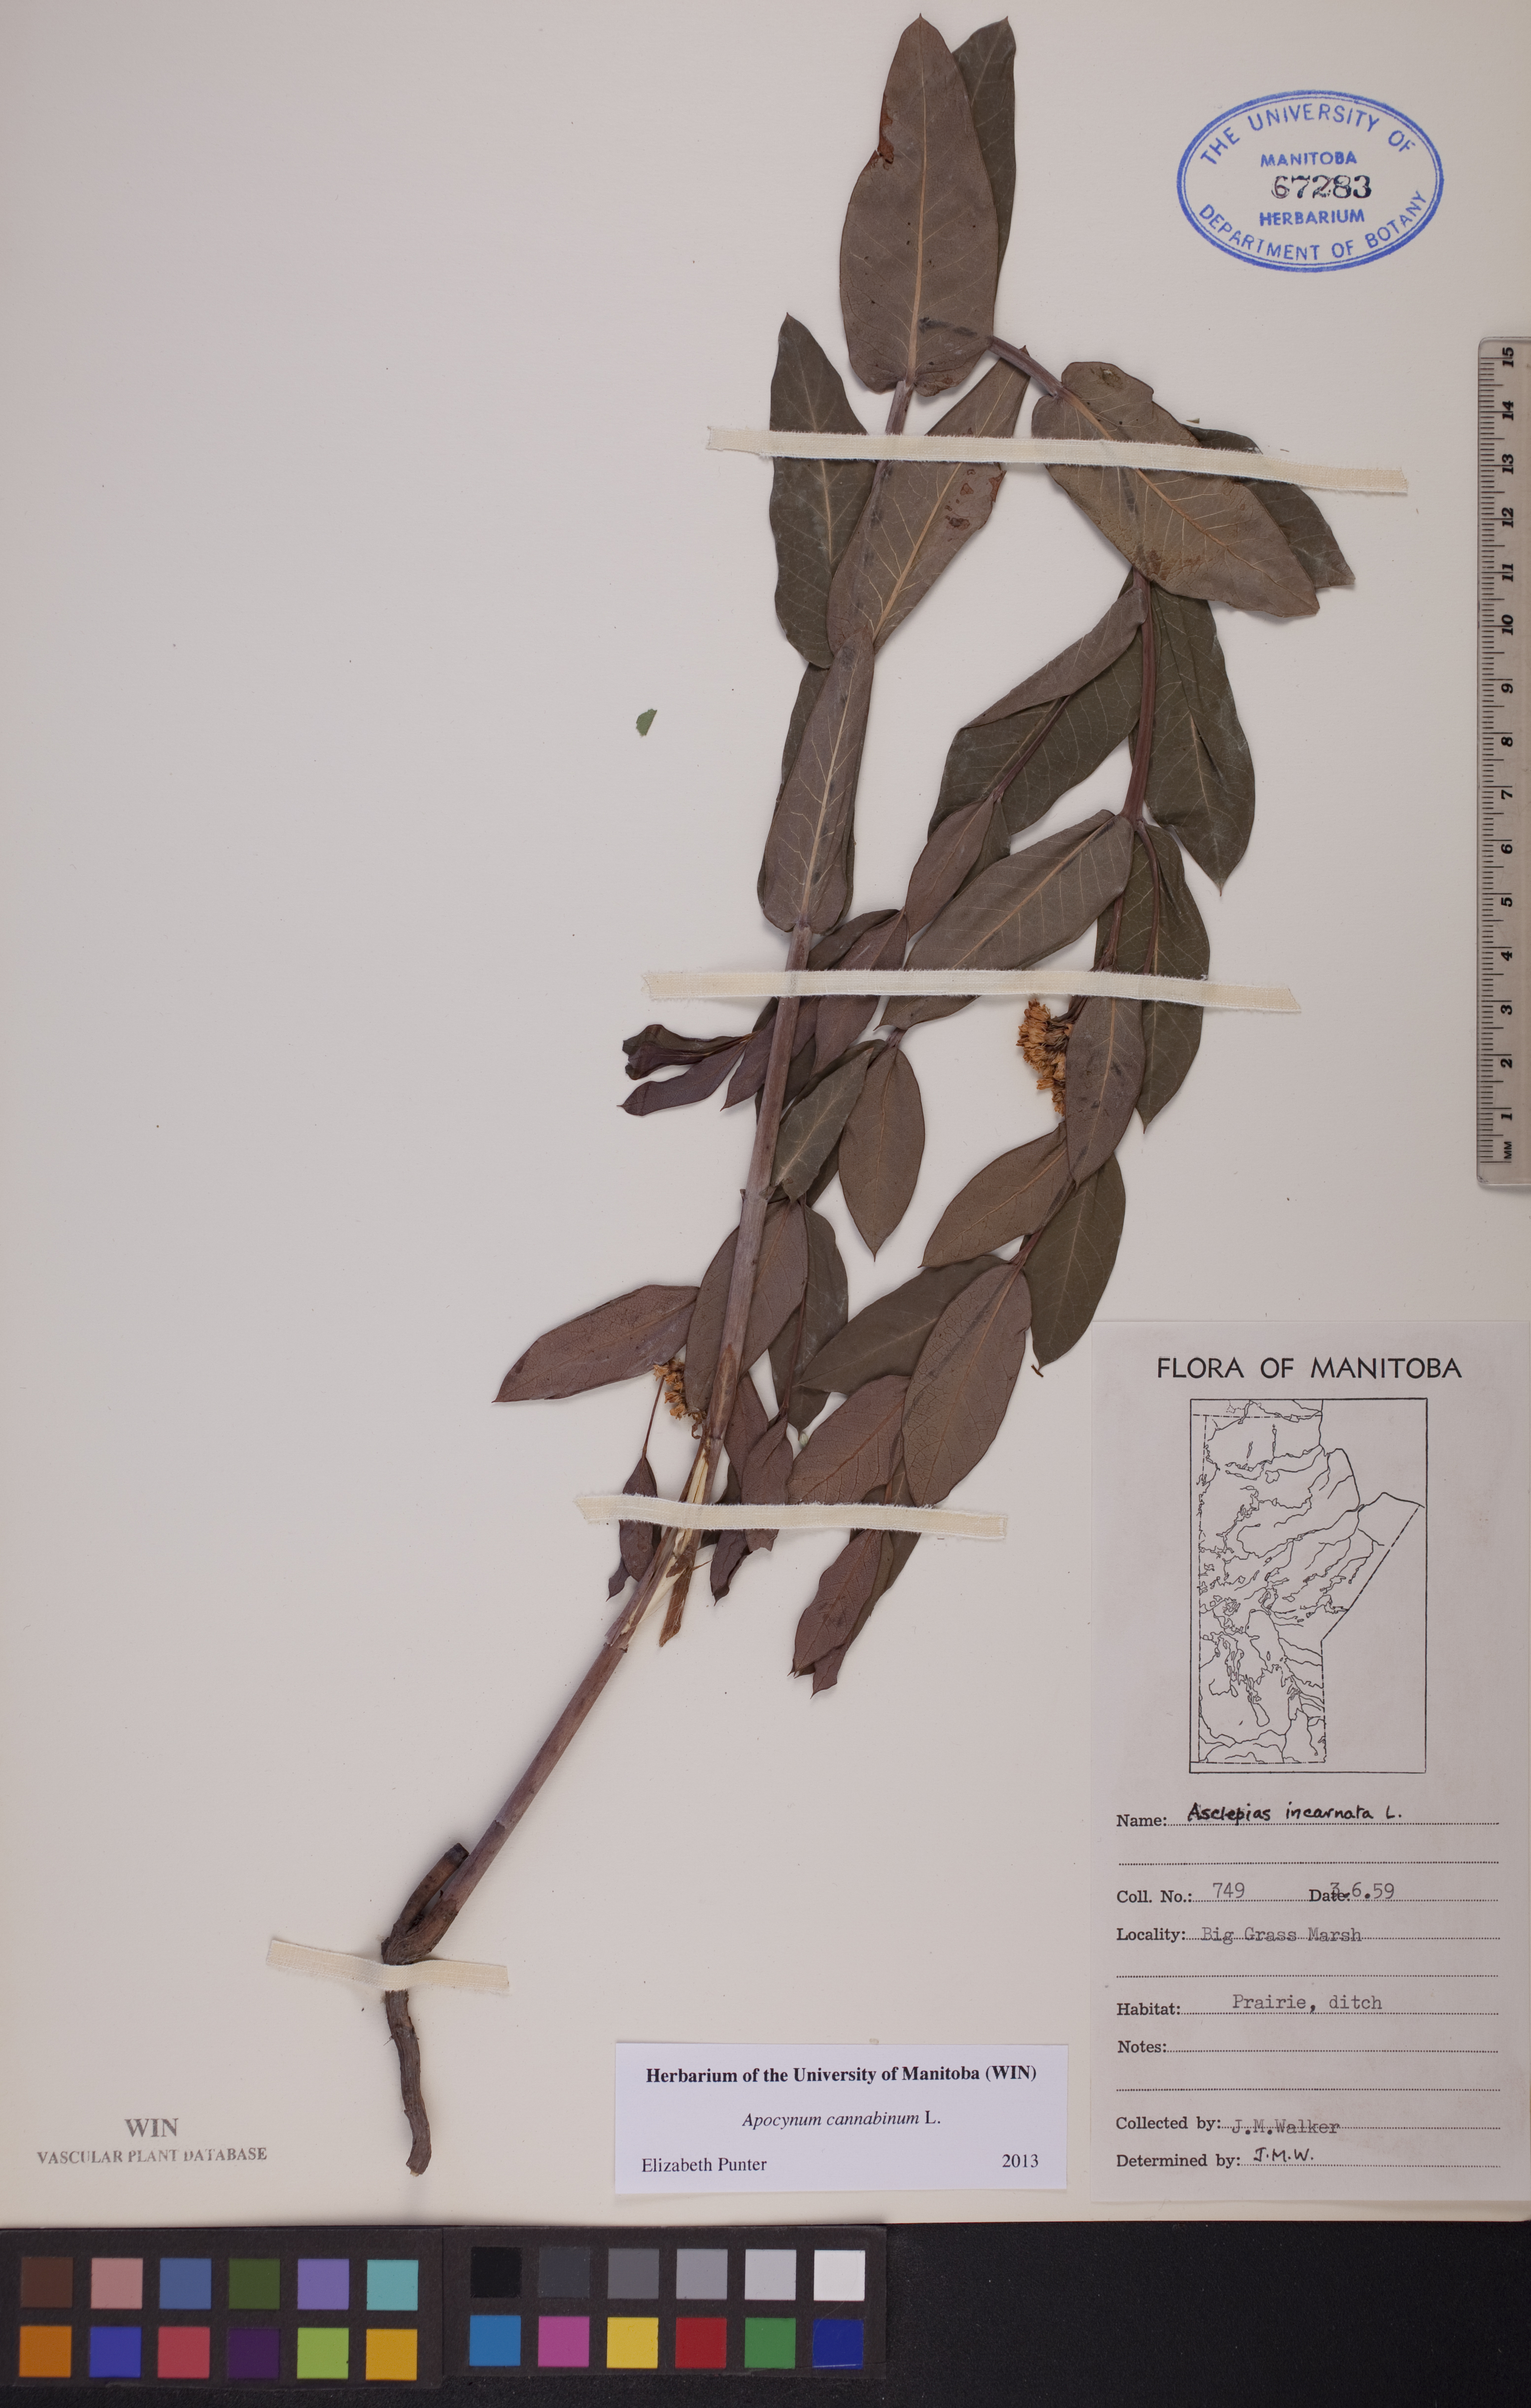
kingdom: Plantae
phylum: Tracheophyta
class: Magnoliopsida
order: Gentianales
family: Apocynaceae
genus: Apocynum
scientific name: Apocynum cannabinum
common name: Hemp dogbane
